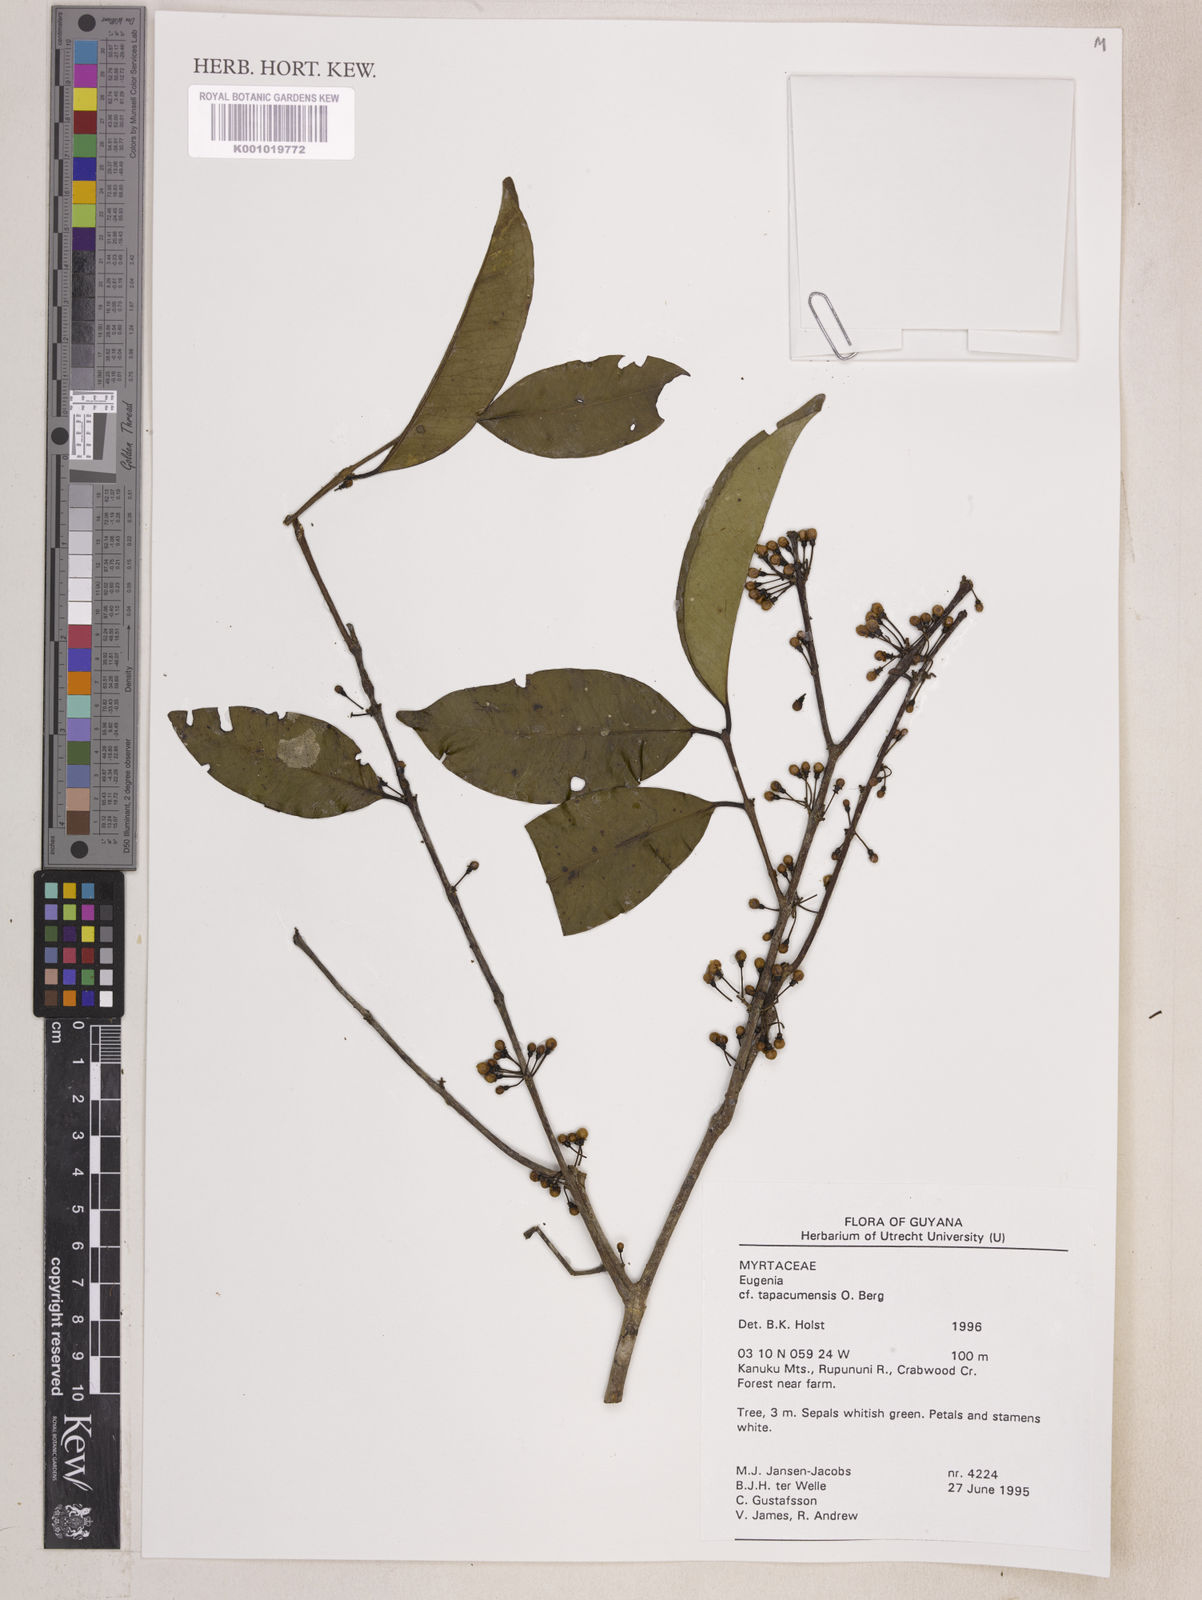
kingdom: Plantae
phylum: Tracheophyta
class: Magnoliopsida
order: Myrtales
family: Myrtaceae
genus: Eugenia
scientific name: Eugenia stictopetala
